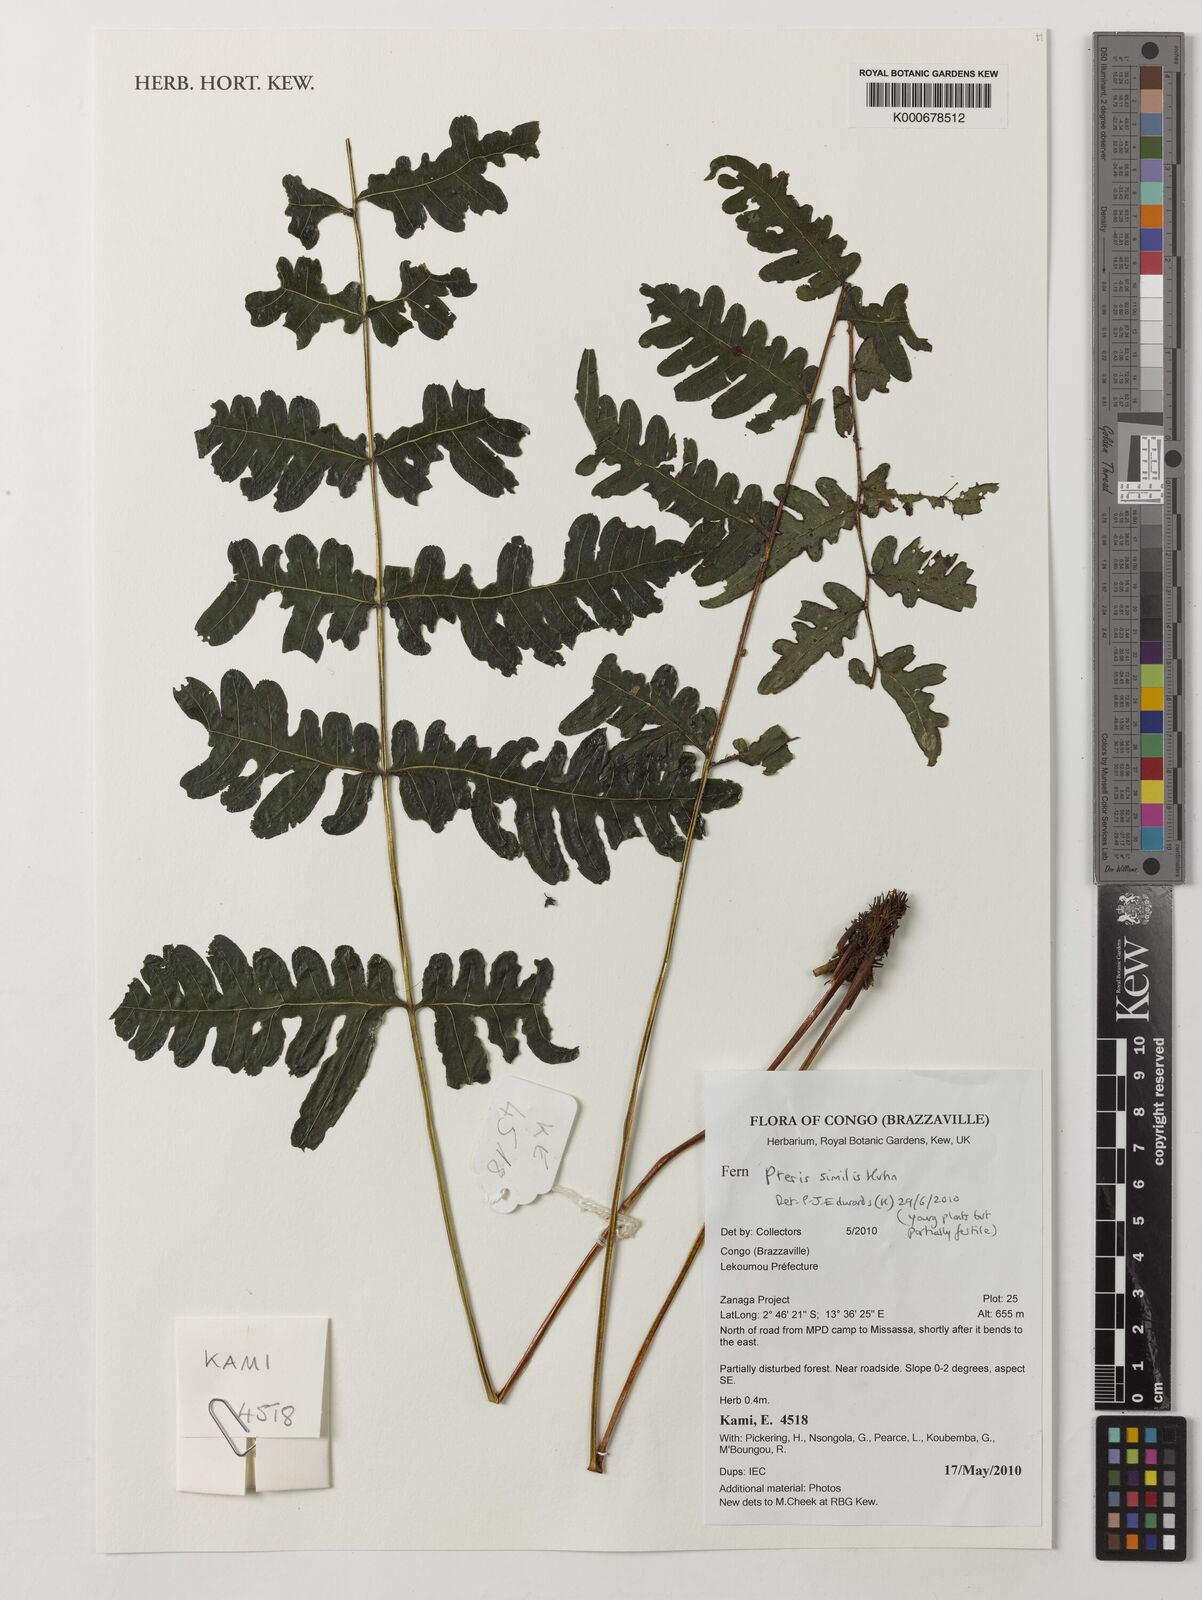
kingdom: Plantae
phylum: Tracheophyta
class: Polypodiopsida
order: Polypodiales
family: Pteridaceae
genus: Pteris
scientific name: Pteris similis
